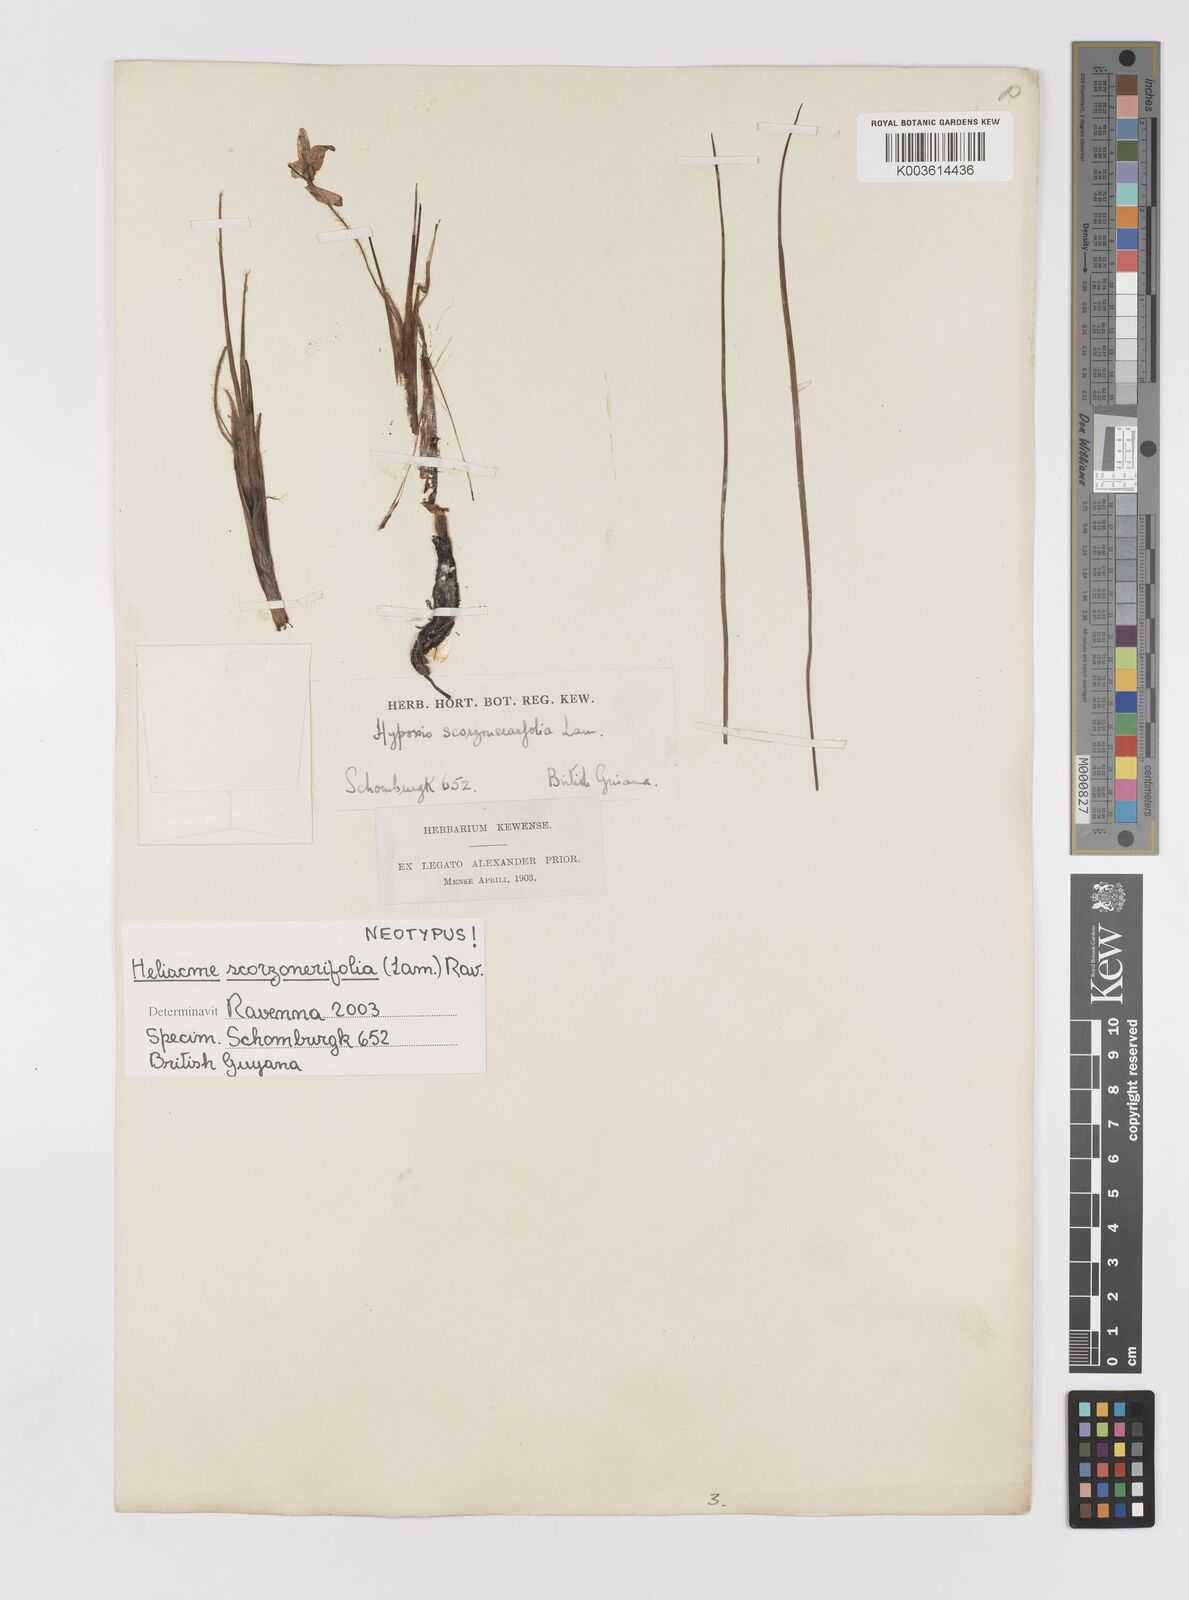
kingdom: Plantae
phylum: Tracheophyta
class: Liliopsida
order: Asparagales
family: Hypoxidaceae
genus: Curculigo
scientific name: Curculigo scorzonerifolia
